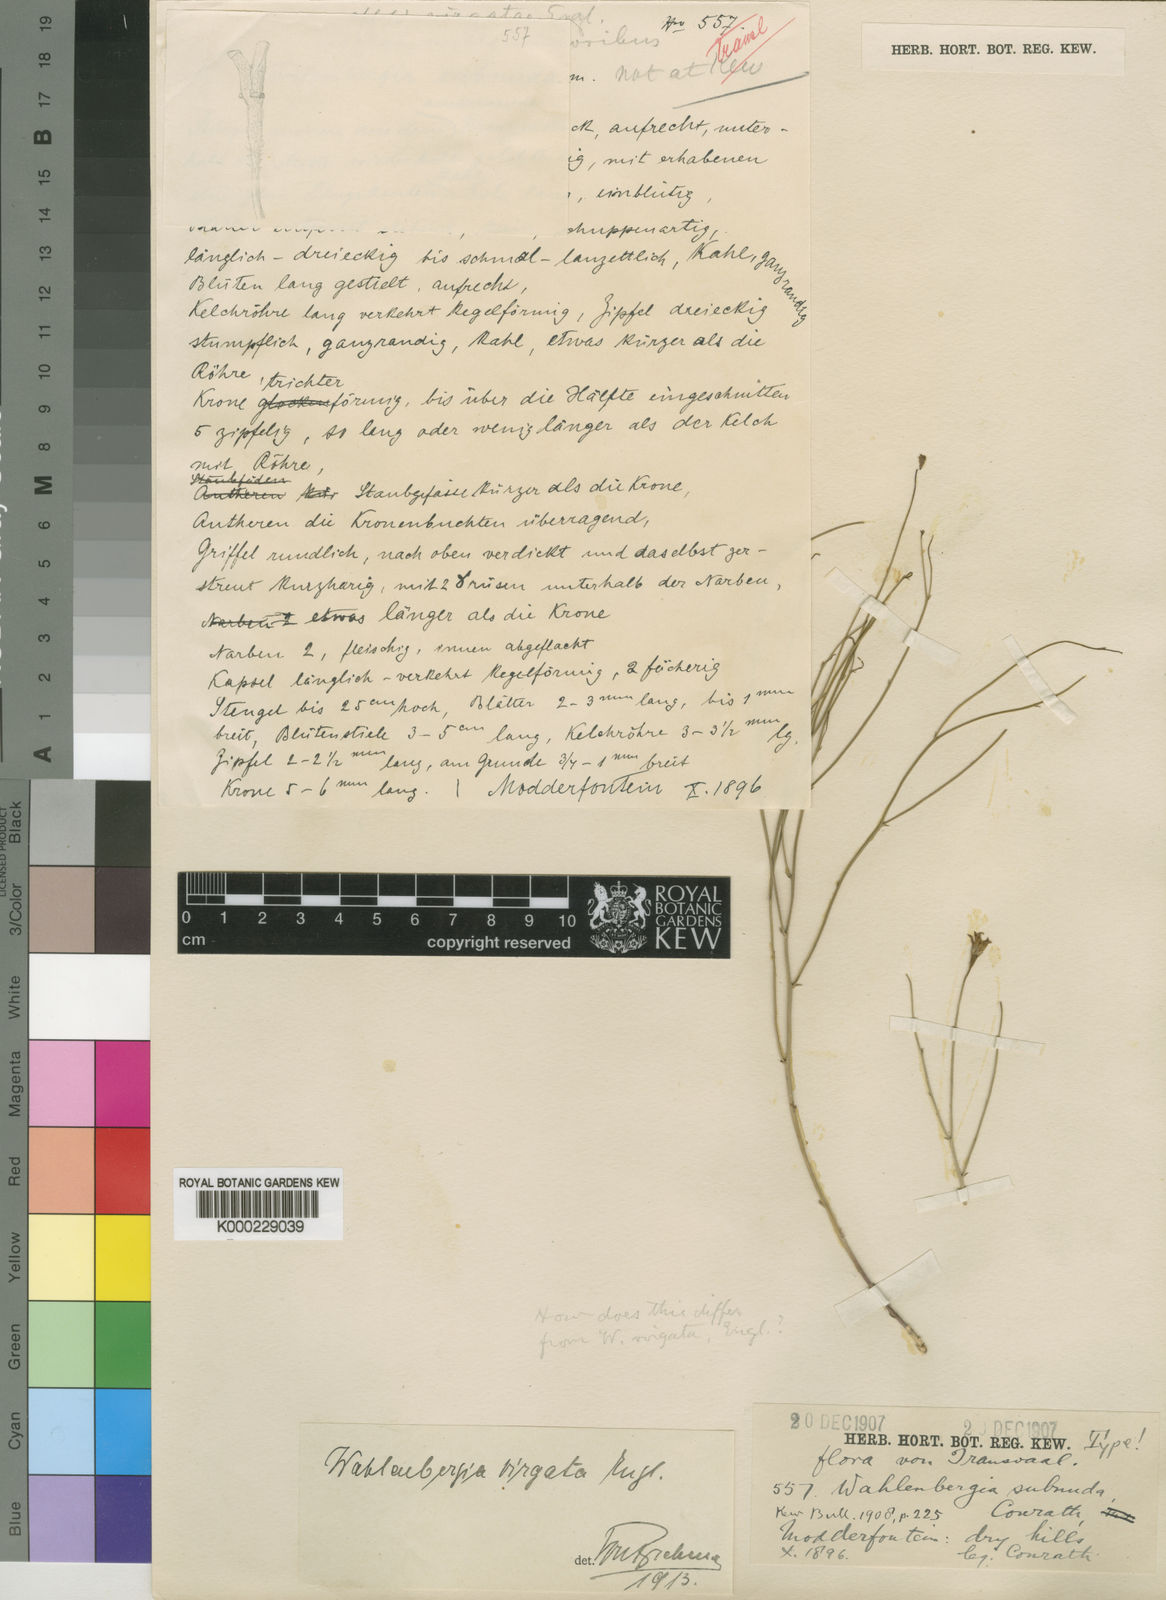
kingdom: Plantae
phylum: Tracheophyta
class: Magnoliopsida
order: Asterales
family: Campanulaceae
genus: Wahlenbergia
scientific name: Wahlenbergia virgata
